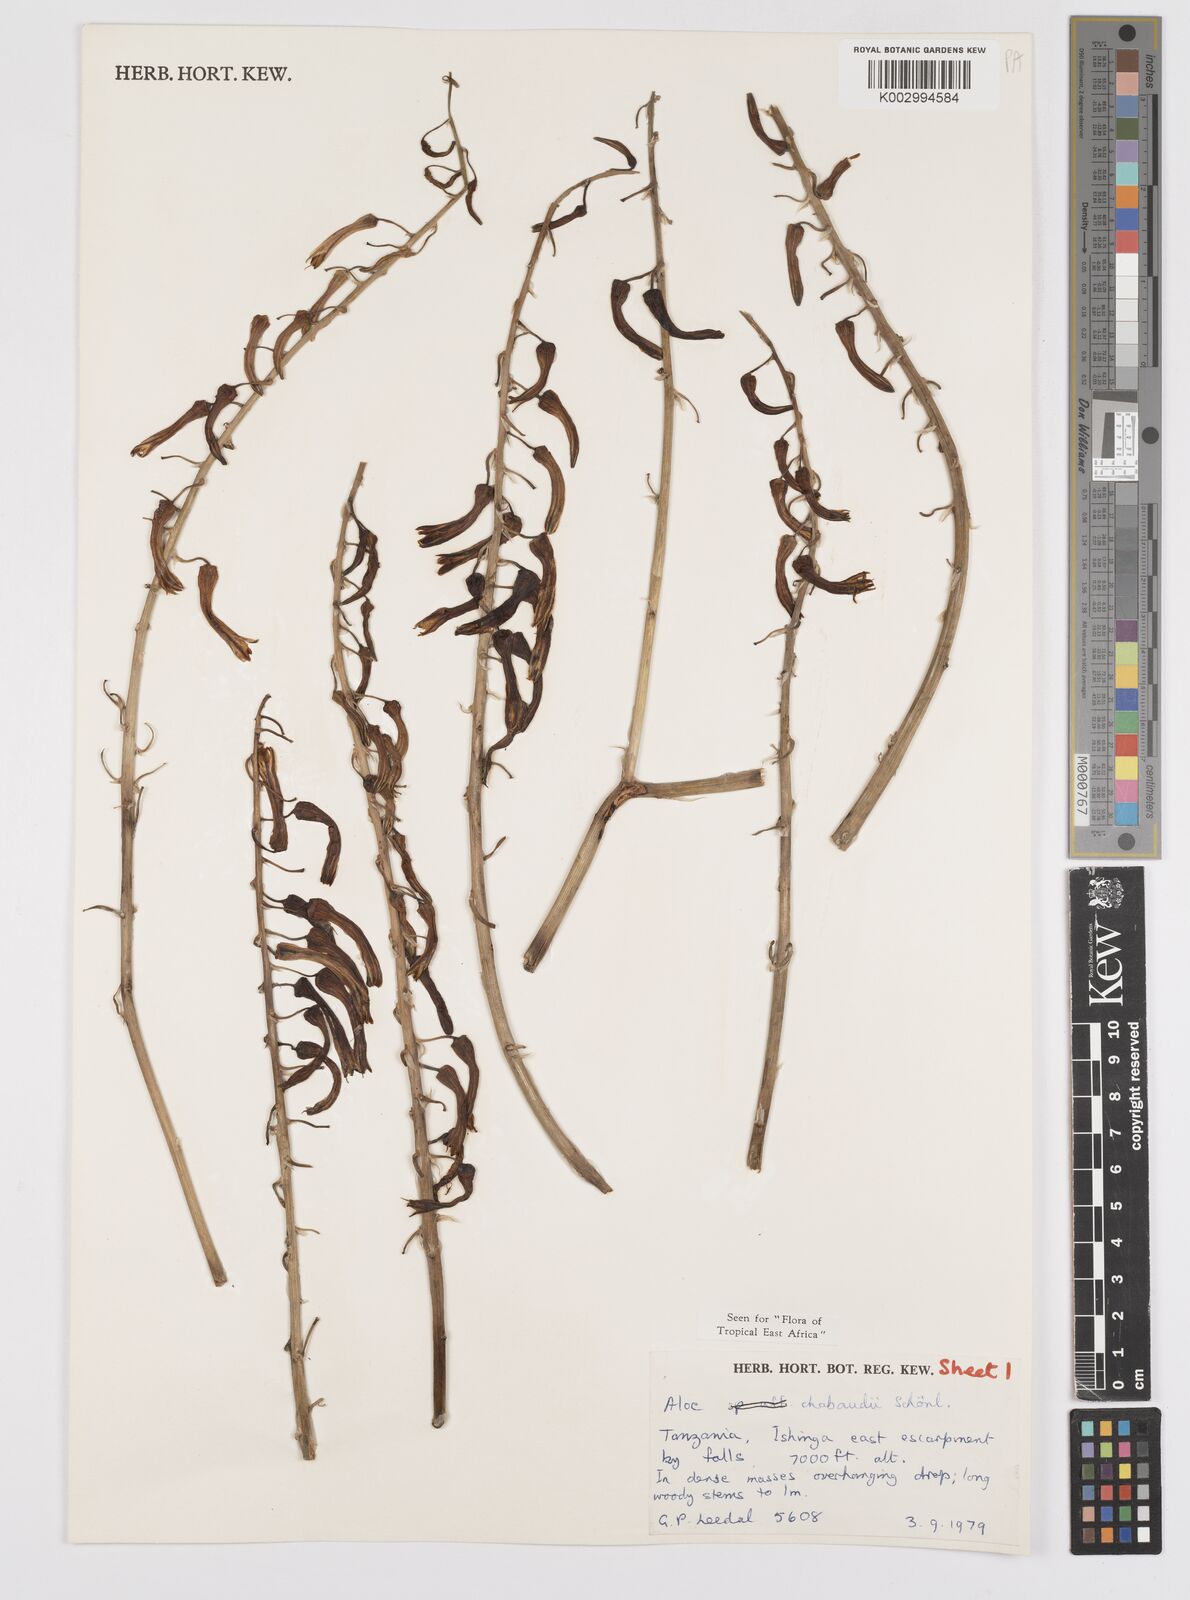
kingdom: Plantae
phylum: Tracheophyta
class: Liliopsida
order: Asparagales
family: Asphodelaceae
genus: Aloe
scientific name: Aloe chabaudii
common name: Chabaud's aloe
